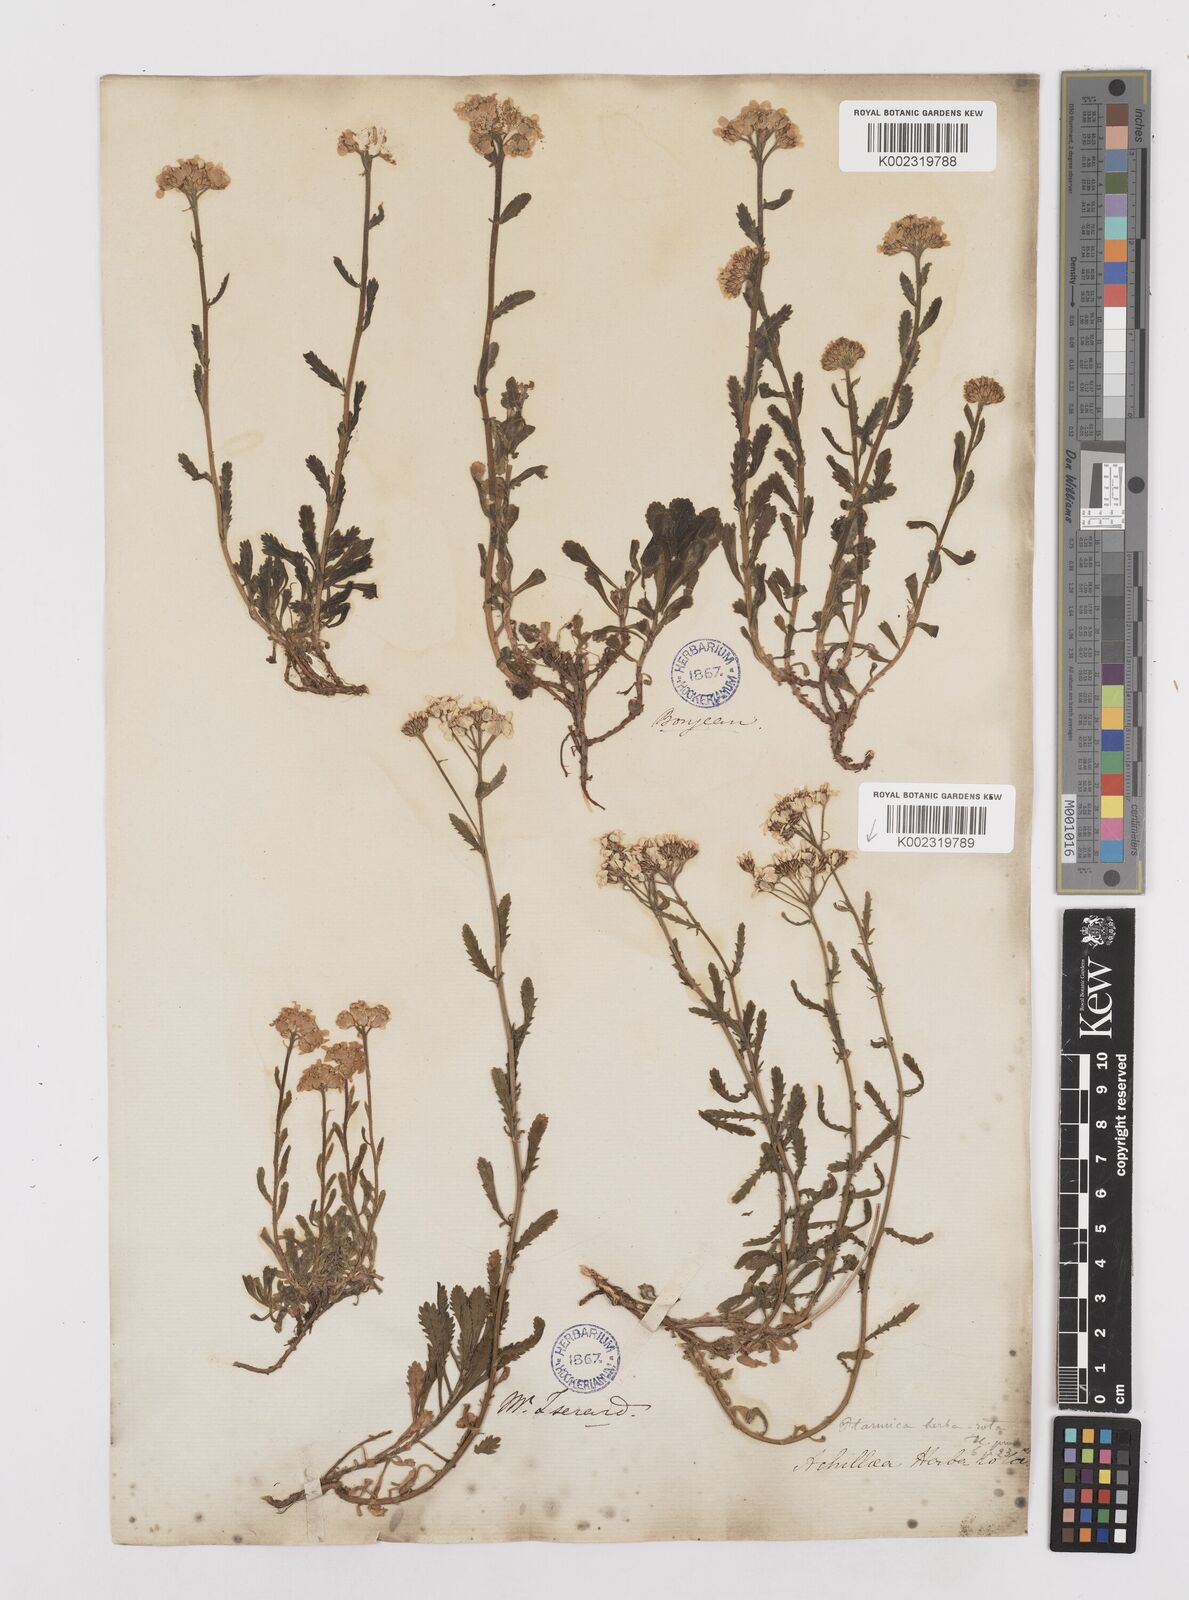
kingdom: Plantae
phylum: Tracheophyta
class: Magnoliopsida
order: Asterales
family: Asteraceae
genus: Achillea
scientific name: Achillea erba-rotta
